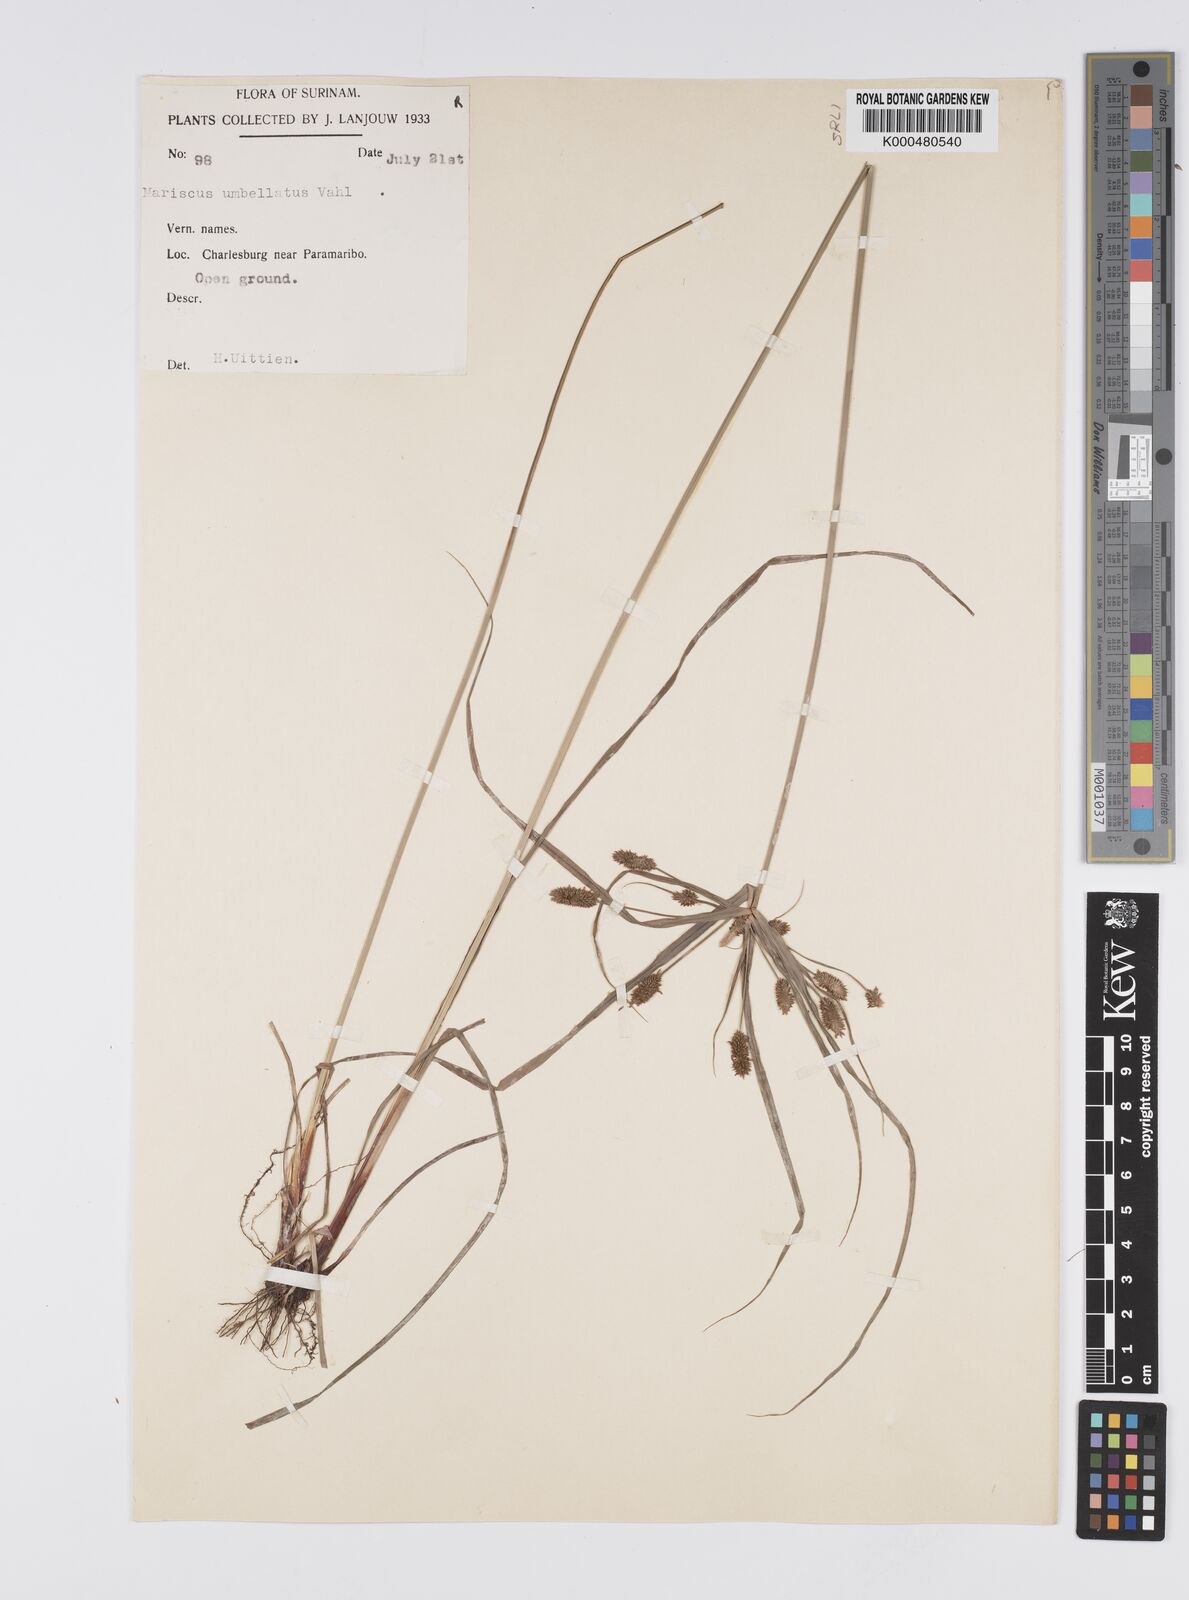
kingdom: Plantae
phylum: Tracheophyta
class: Liliopsida
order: Poales
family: Cyperaceae
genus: Mariscus
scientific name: Mariscus
